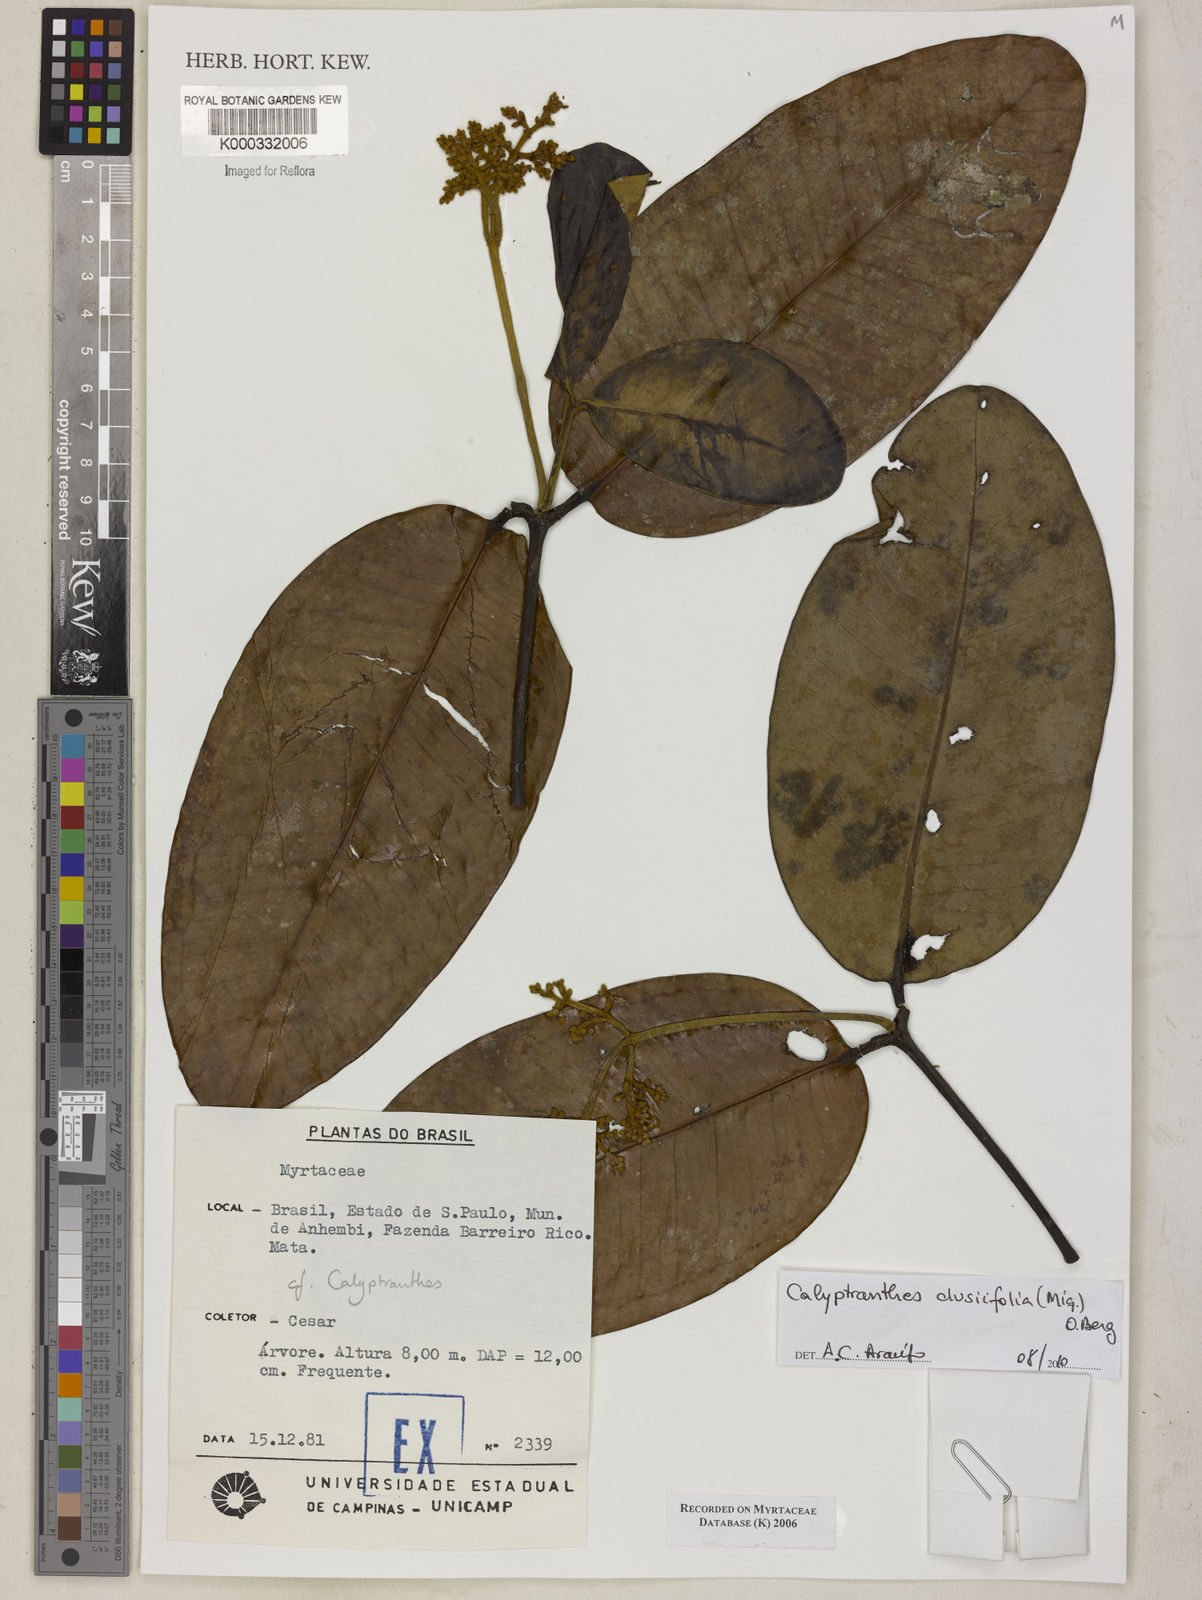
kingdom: Plantae
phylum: Tracheophyta
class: Magnoliopsida
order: Myrtales
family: Myrtaceae
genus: Calyptranthes
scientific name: Calyptranthes
